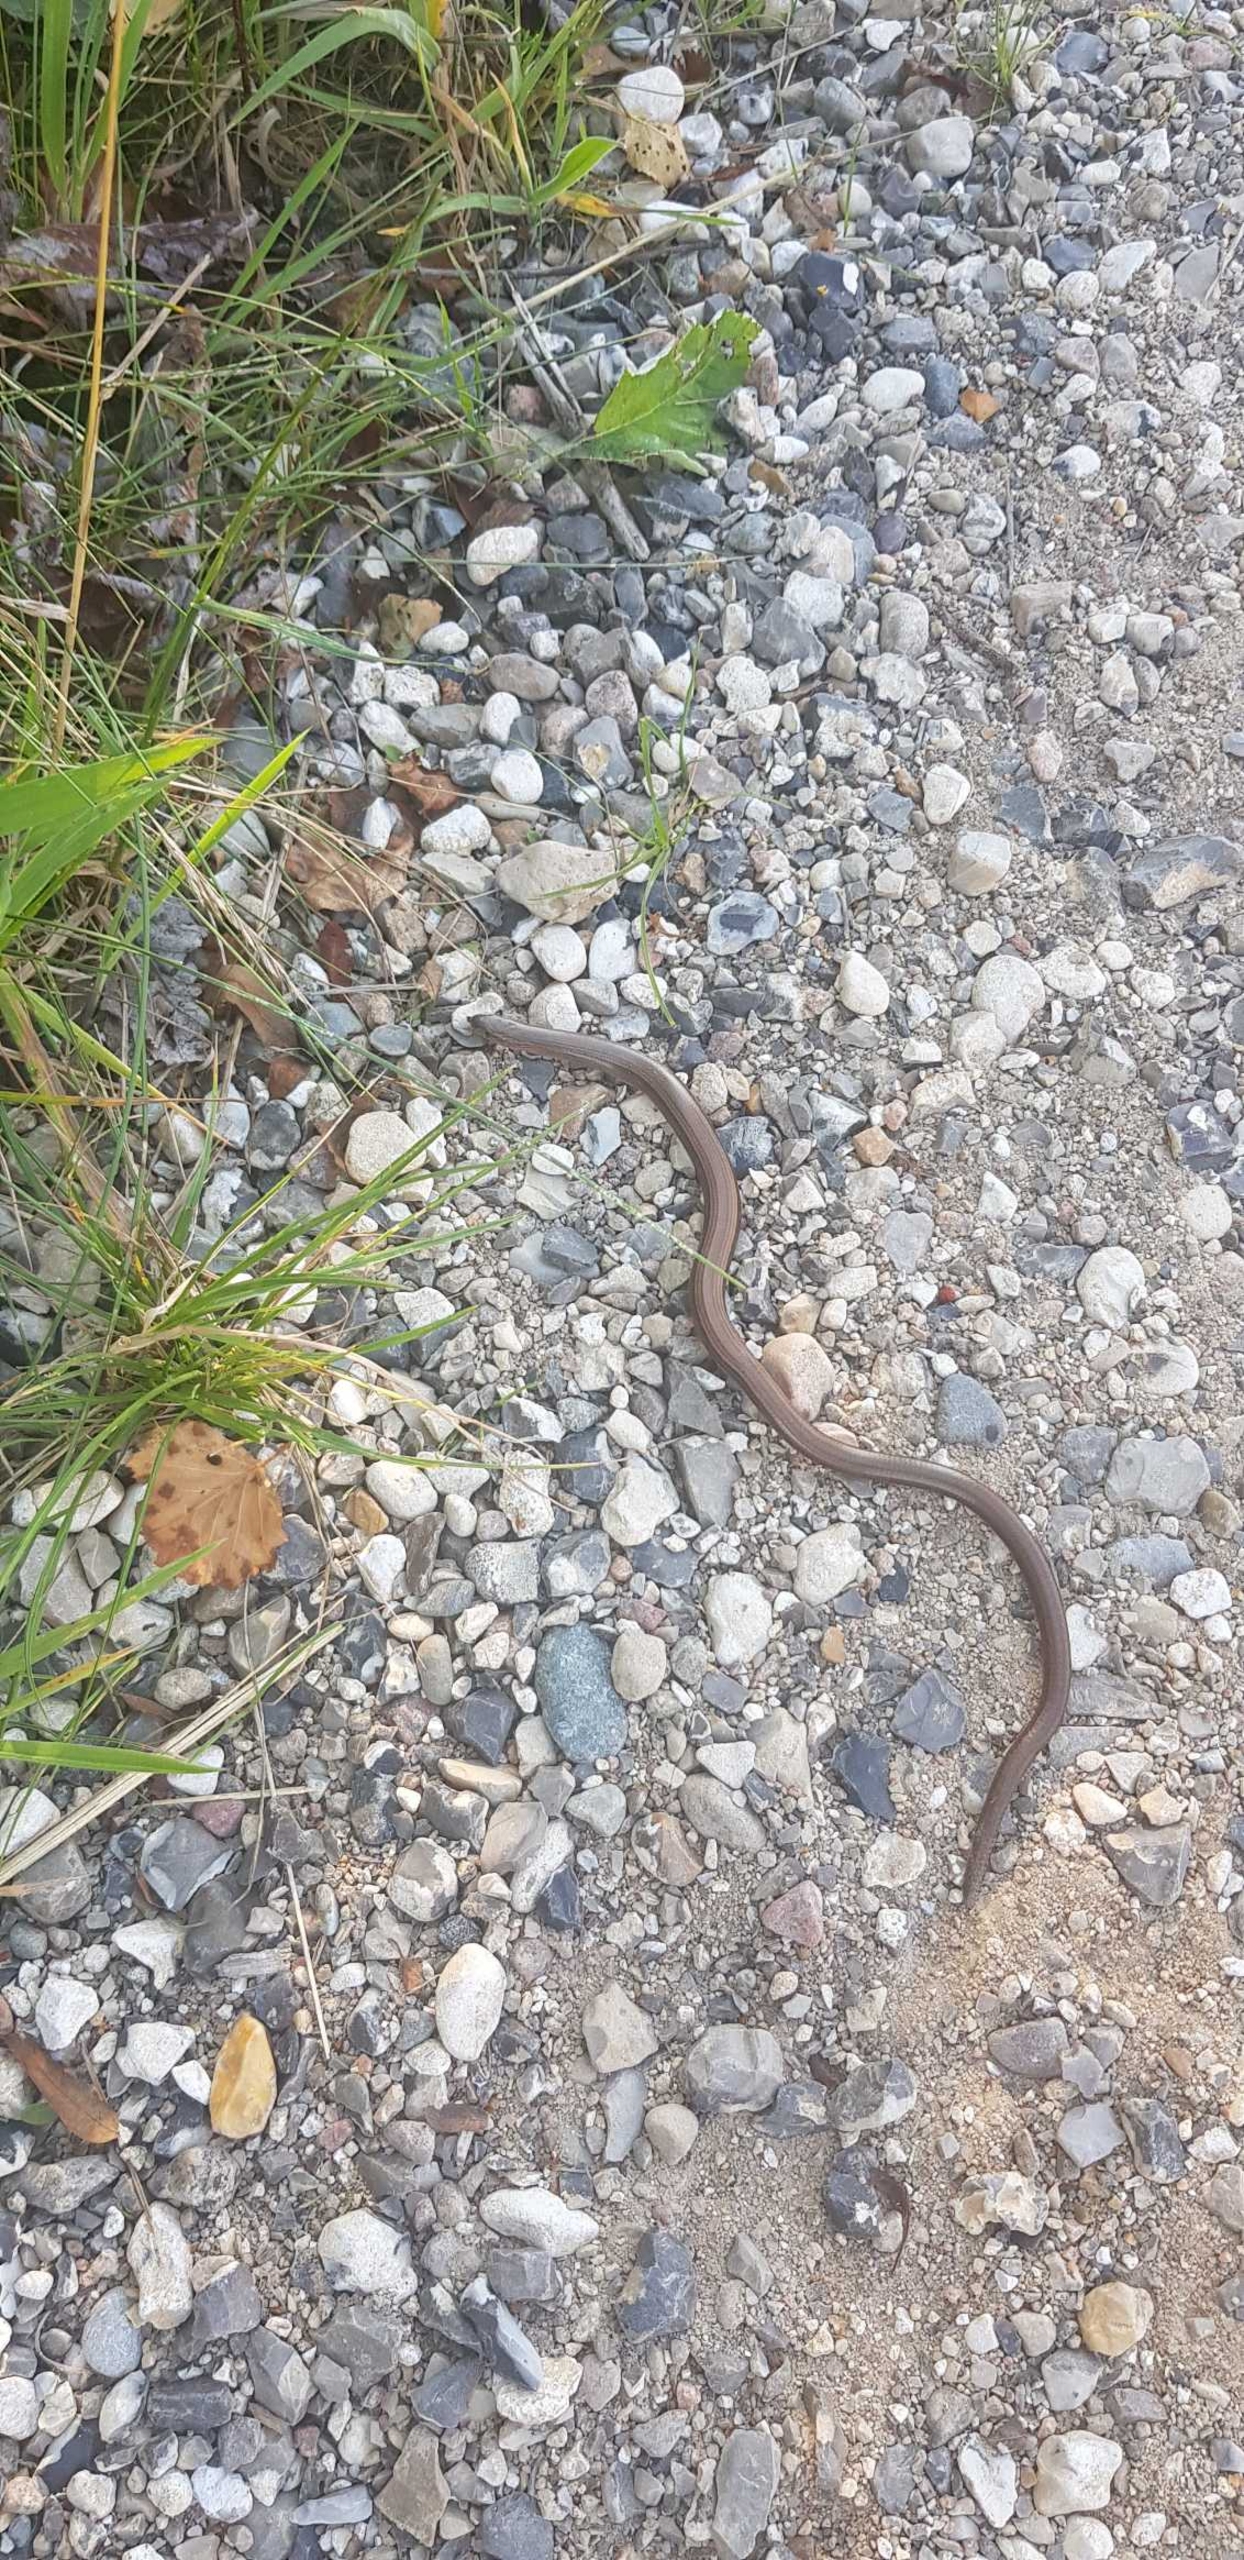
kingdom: Animalia
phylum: Chordata
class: Squamata
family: Anguidae
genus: Anguis
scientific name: Anguis fragilis
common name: Stålorm
